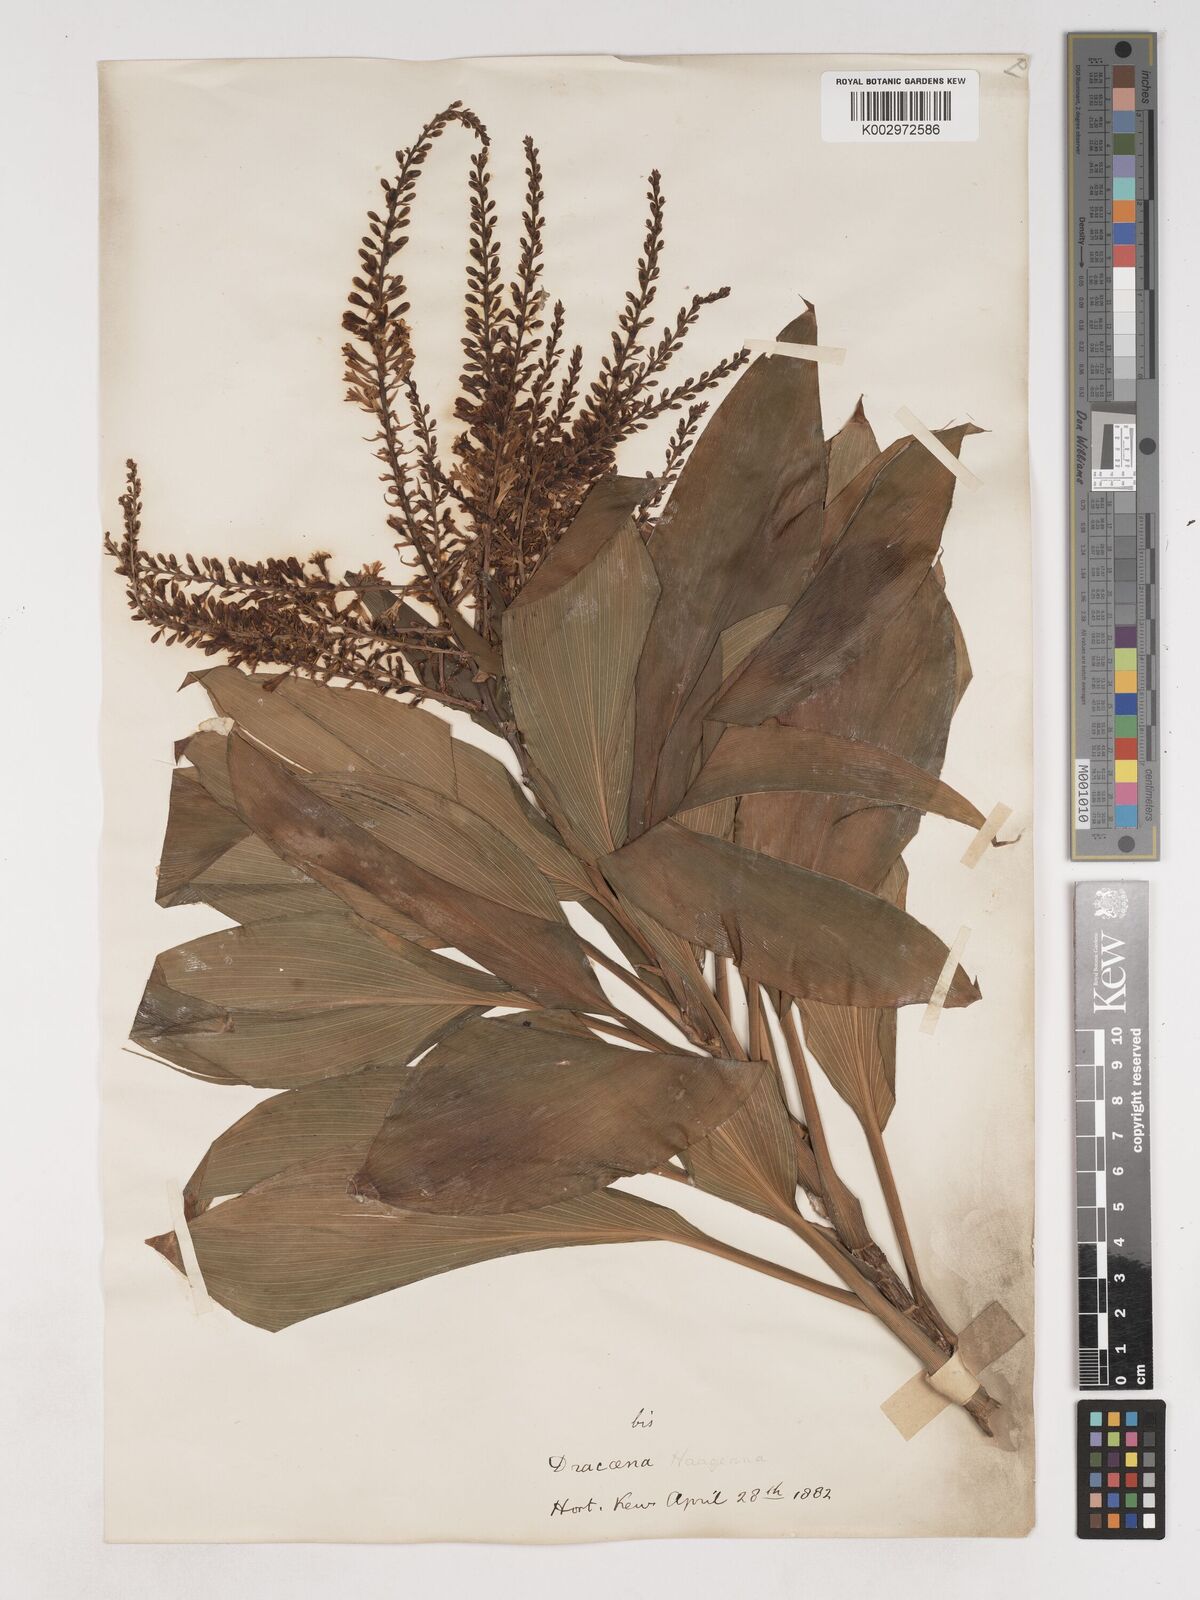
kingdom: Plantae
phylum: Tracheophyta
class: Liliopsida
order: Asparagales
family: Asparagaceae
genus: Cordyline
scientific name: Cordyline murchisoniae
